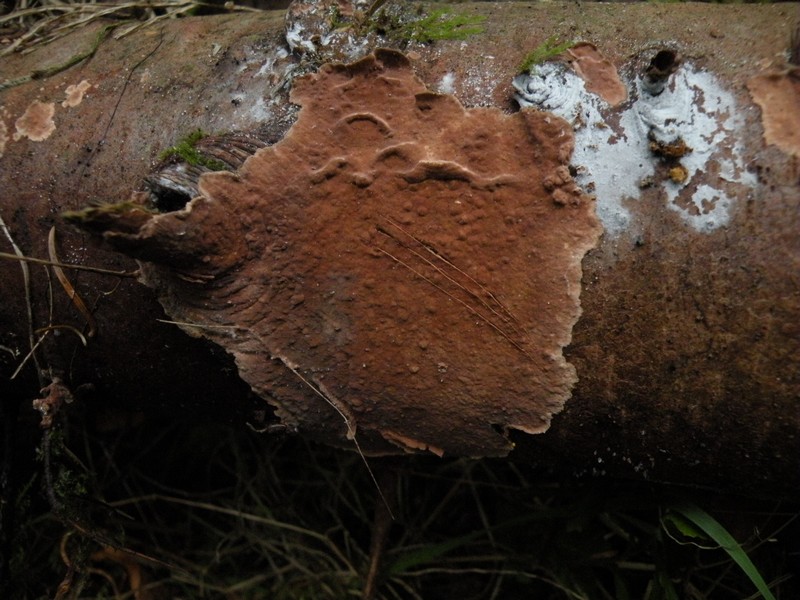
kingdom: Fungi
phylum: Basidiomycota
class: Agaricomycetes
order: Russulales
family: Echinodontiaceae
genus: Amylostereum
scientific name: Amylostereum chailletii
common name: gran-lædersvamp
